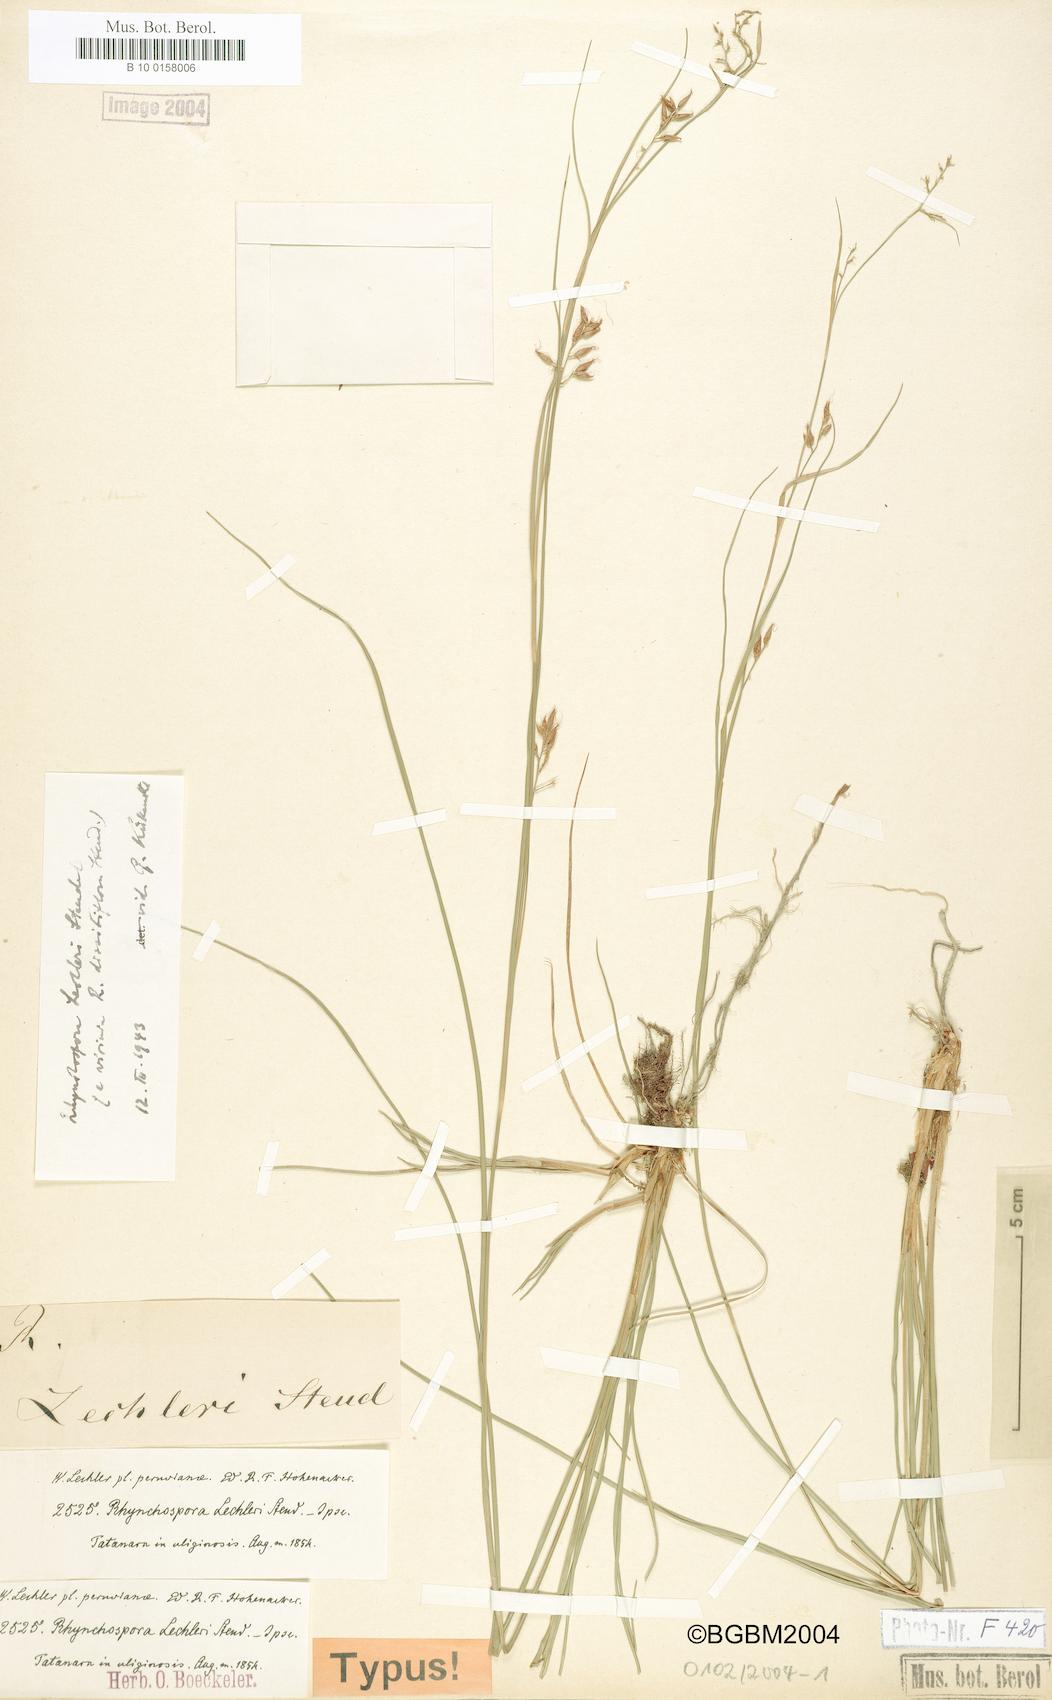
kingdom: Plantae
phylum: Tracheophyta
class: Liliopsida
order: Poales
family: Cyperaceae
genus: Rhynchospora
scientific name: Rhynchospora vulcani
